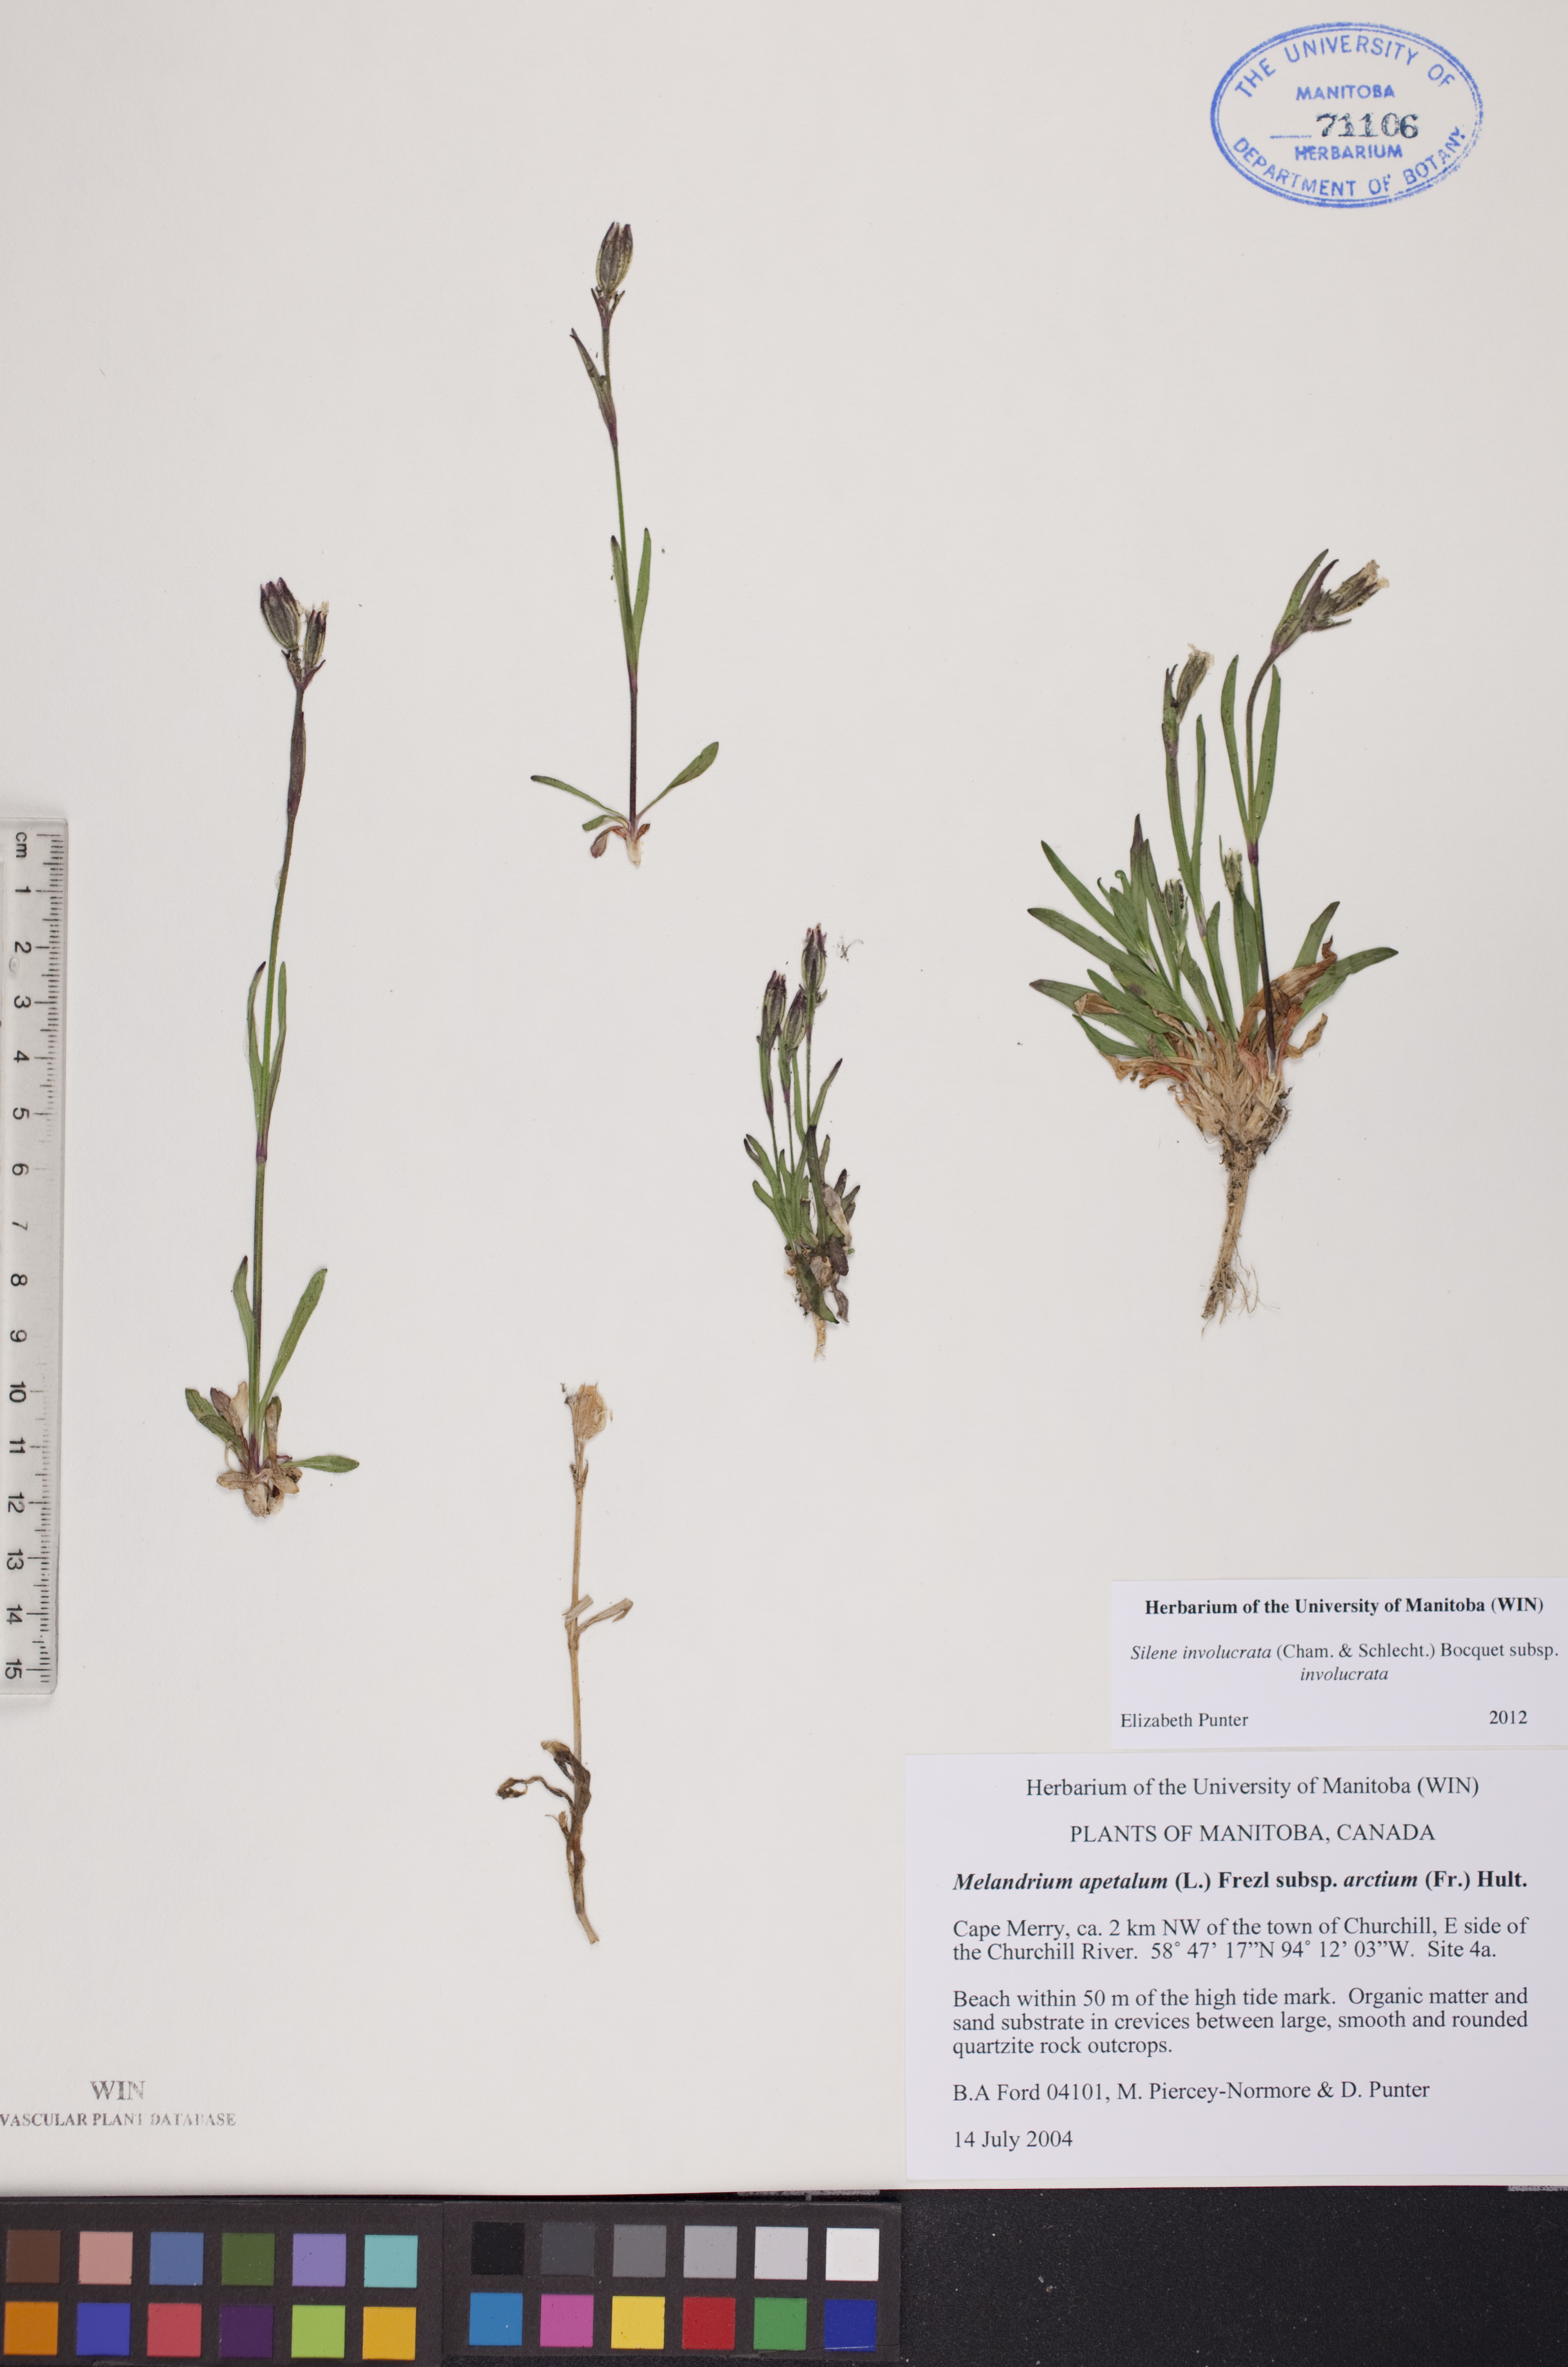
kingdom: Plantae
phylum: Tracheophyta
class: Magnoliopsida
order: Caryophyllales
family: Caryophyllaceae
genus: Silene
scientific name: Silene involucrata
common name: Greater arctic campion
